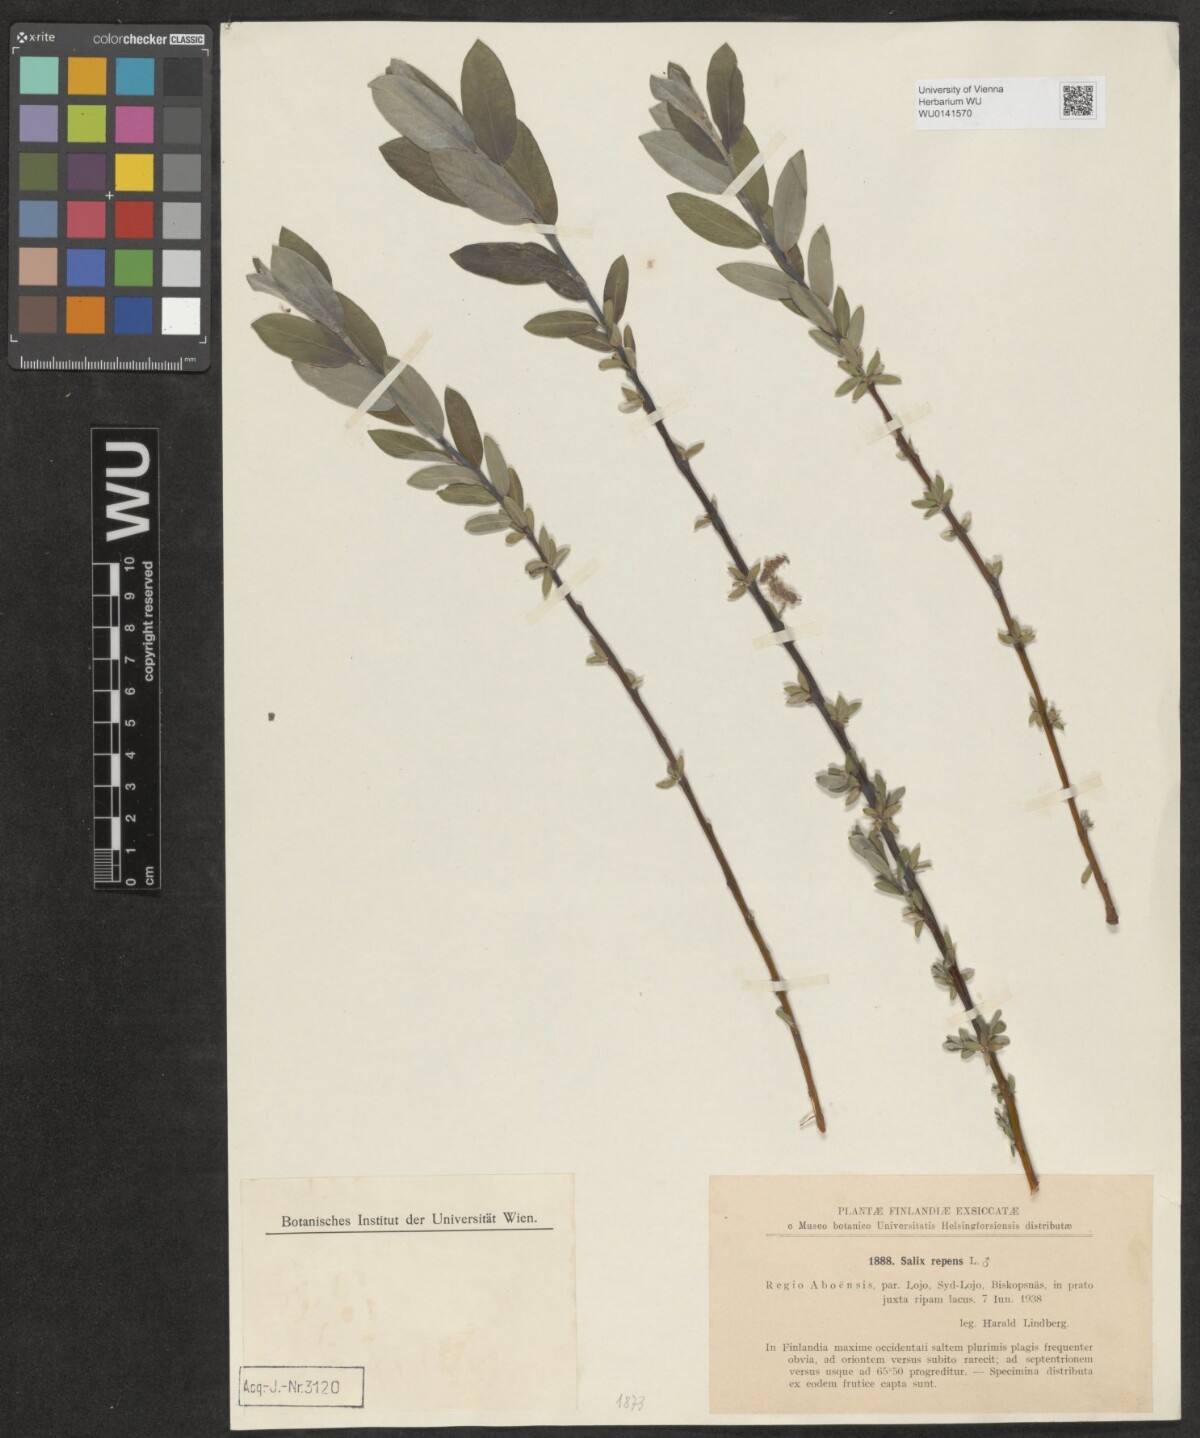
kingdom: Plantae
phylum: Tracheophyta
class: Magnoliopsida
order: Malpighiales
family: Salicaceae
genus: Salix
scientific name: Salix repens
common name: Creeping willow
